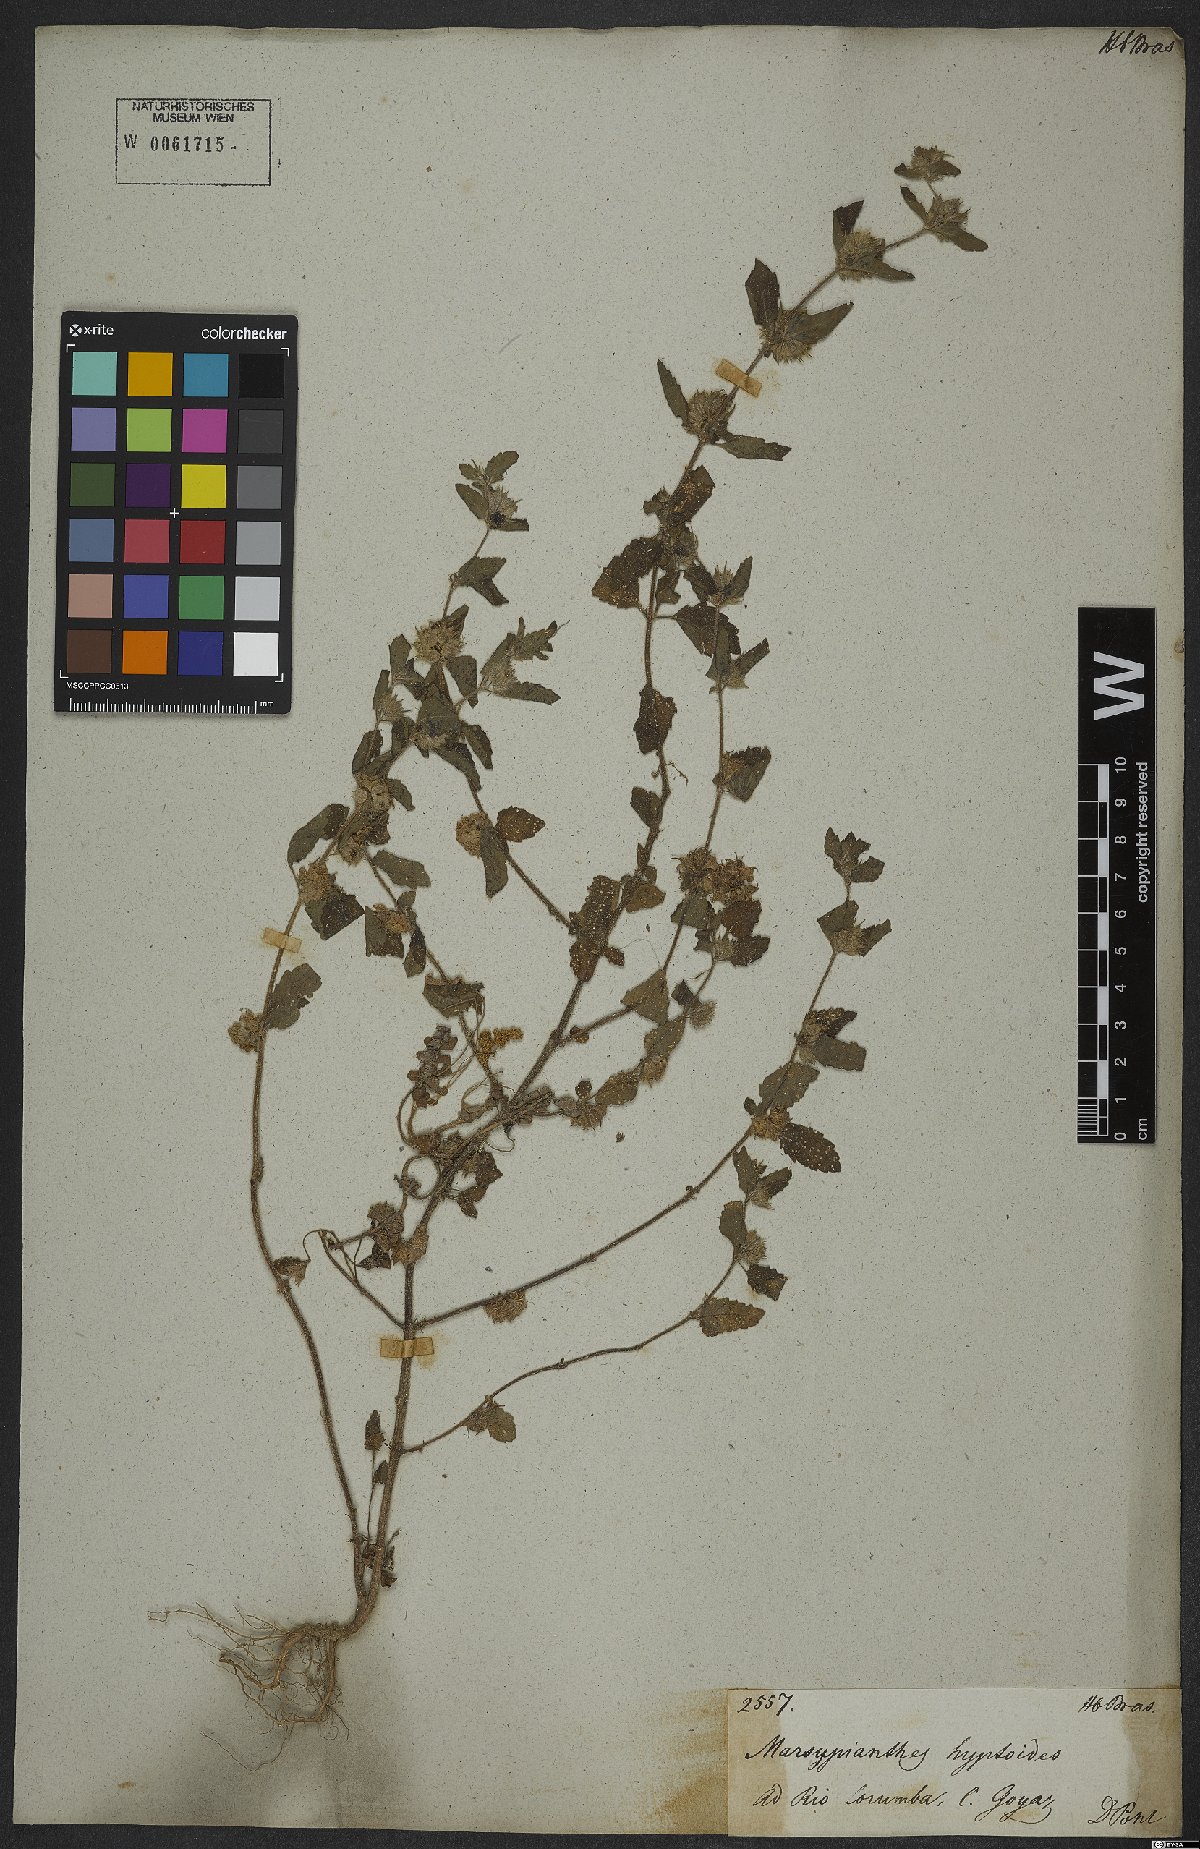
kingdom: Plantae
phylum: Tracheophyta
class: Magnoliopsida
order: Lamiales
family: Lamiaceae
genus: Marsypianthes
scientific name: Marsypianthes chamaedrys
